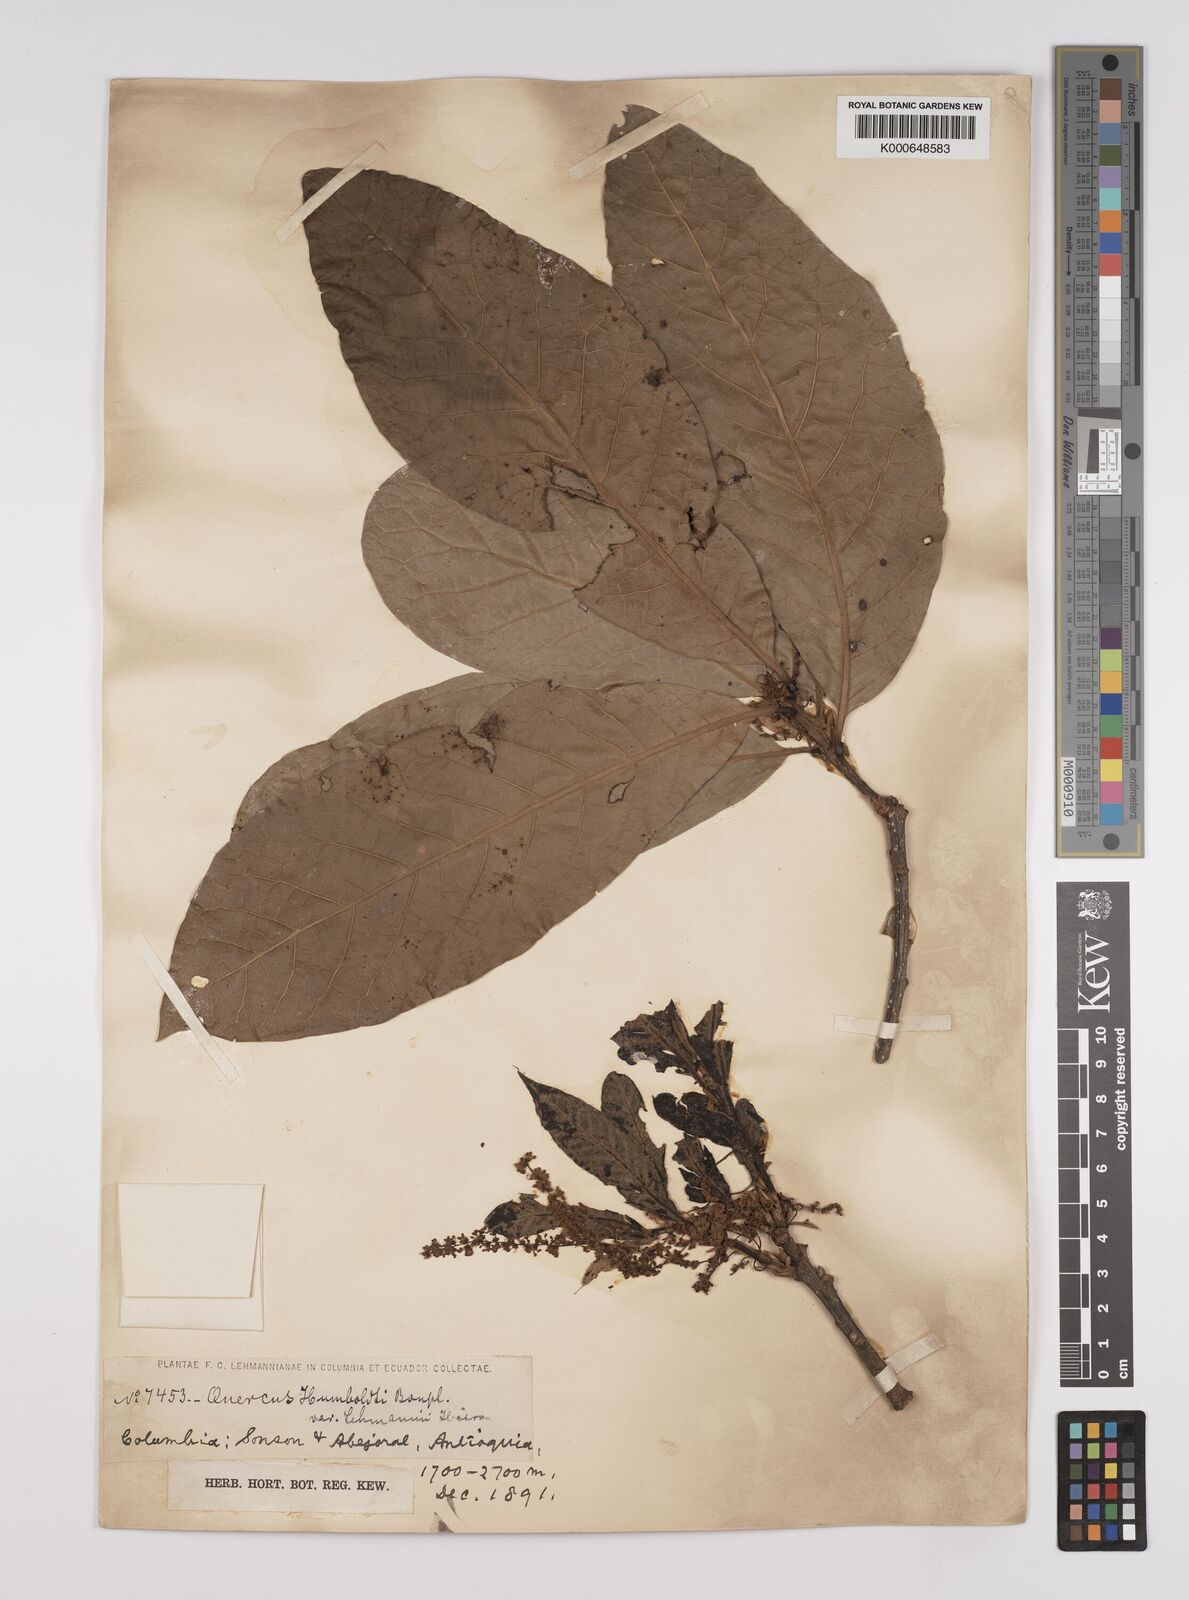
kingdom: Plantae
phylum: Tracheophyta
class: Magnoliopsida
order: Fagales
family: Fagaceae
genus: Quercus
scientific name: Quercus humboldtii
